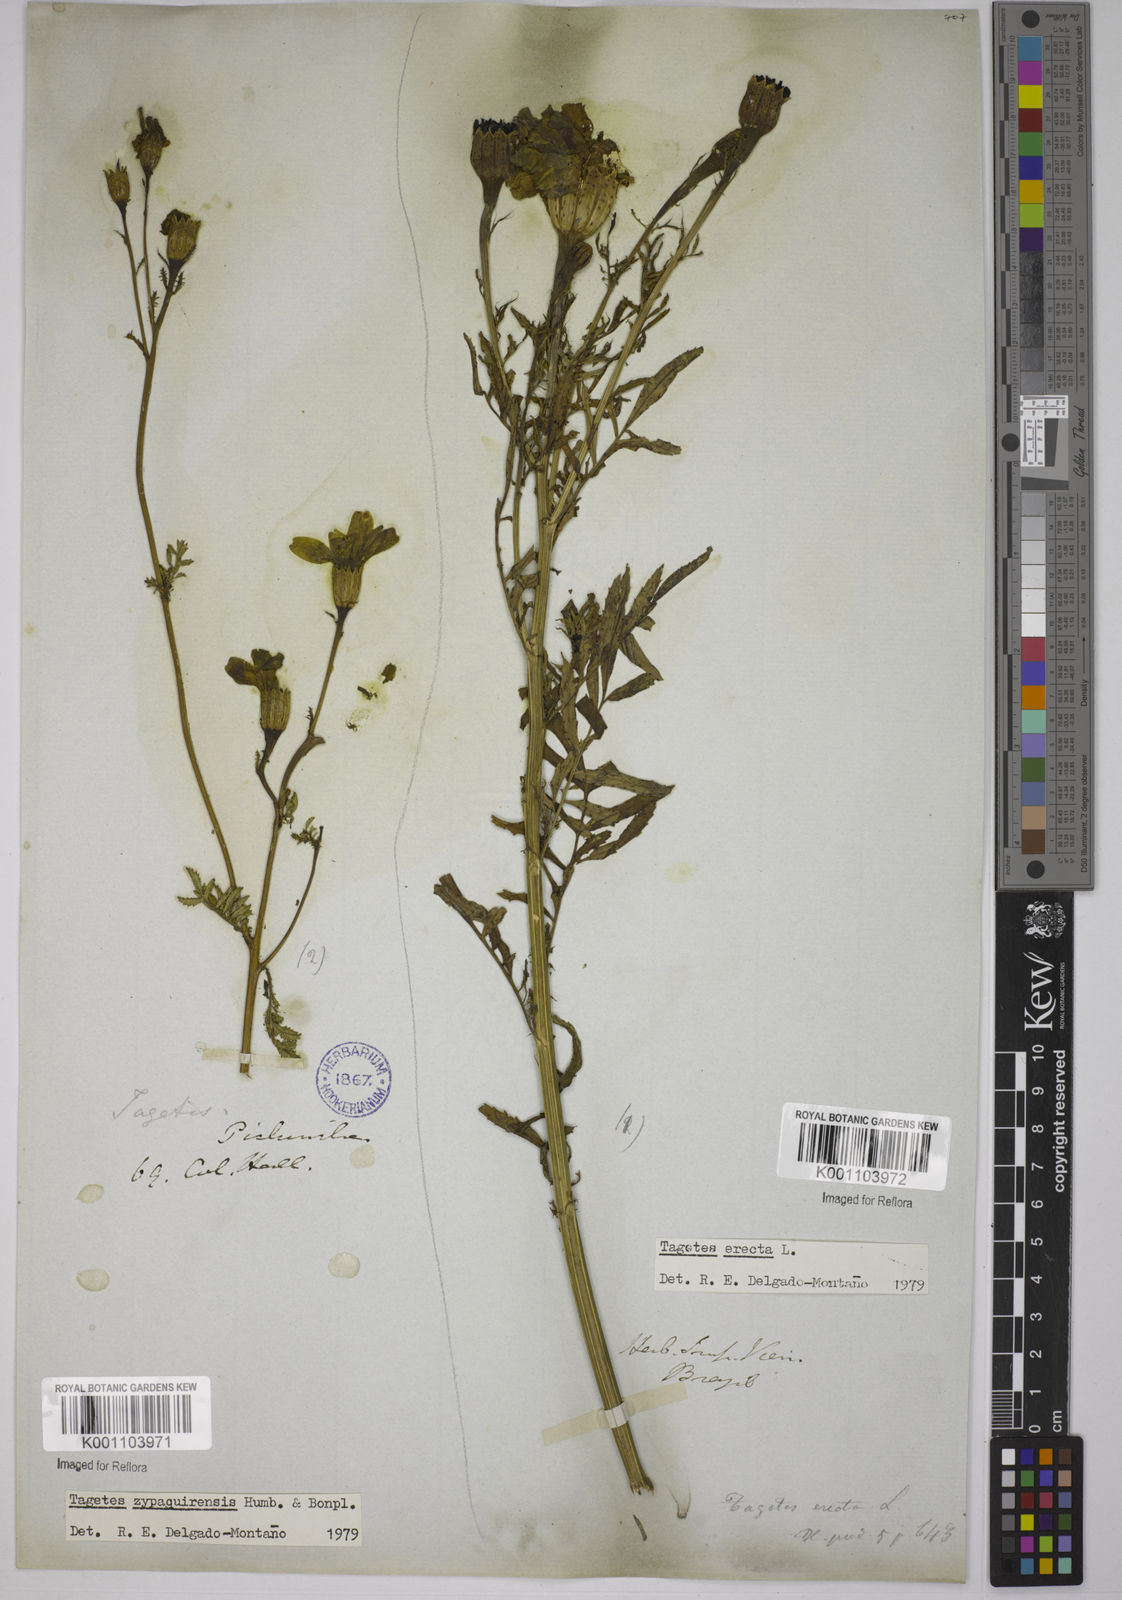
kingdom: Plantae
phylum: Tracheophyta
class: Magnoliopsida
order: Asterales
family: Asteraceae
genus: Tagetes
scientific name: Tagetes erecta
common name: African marigold
